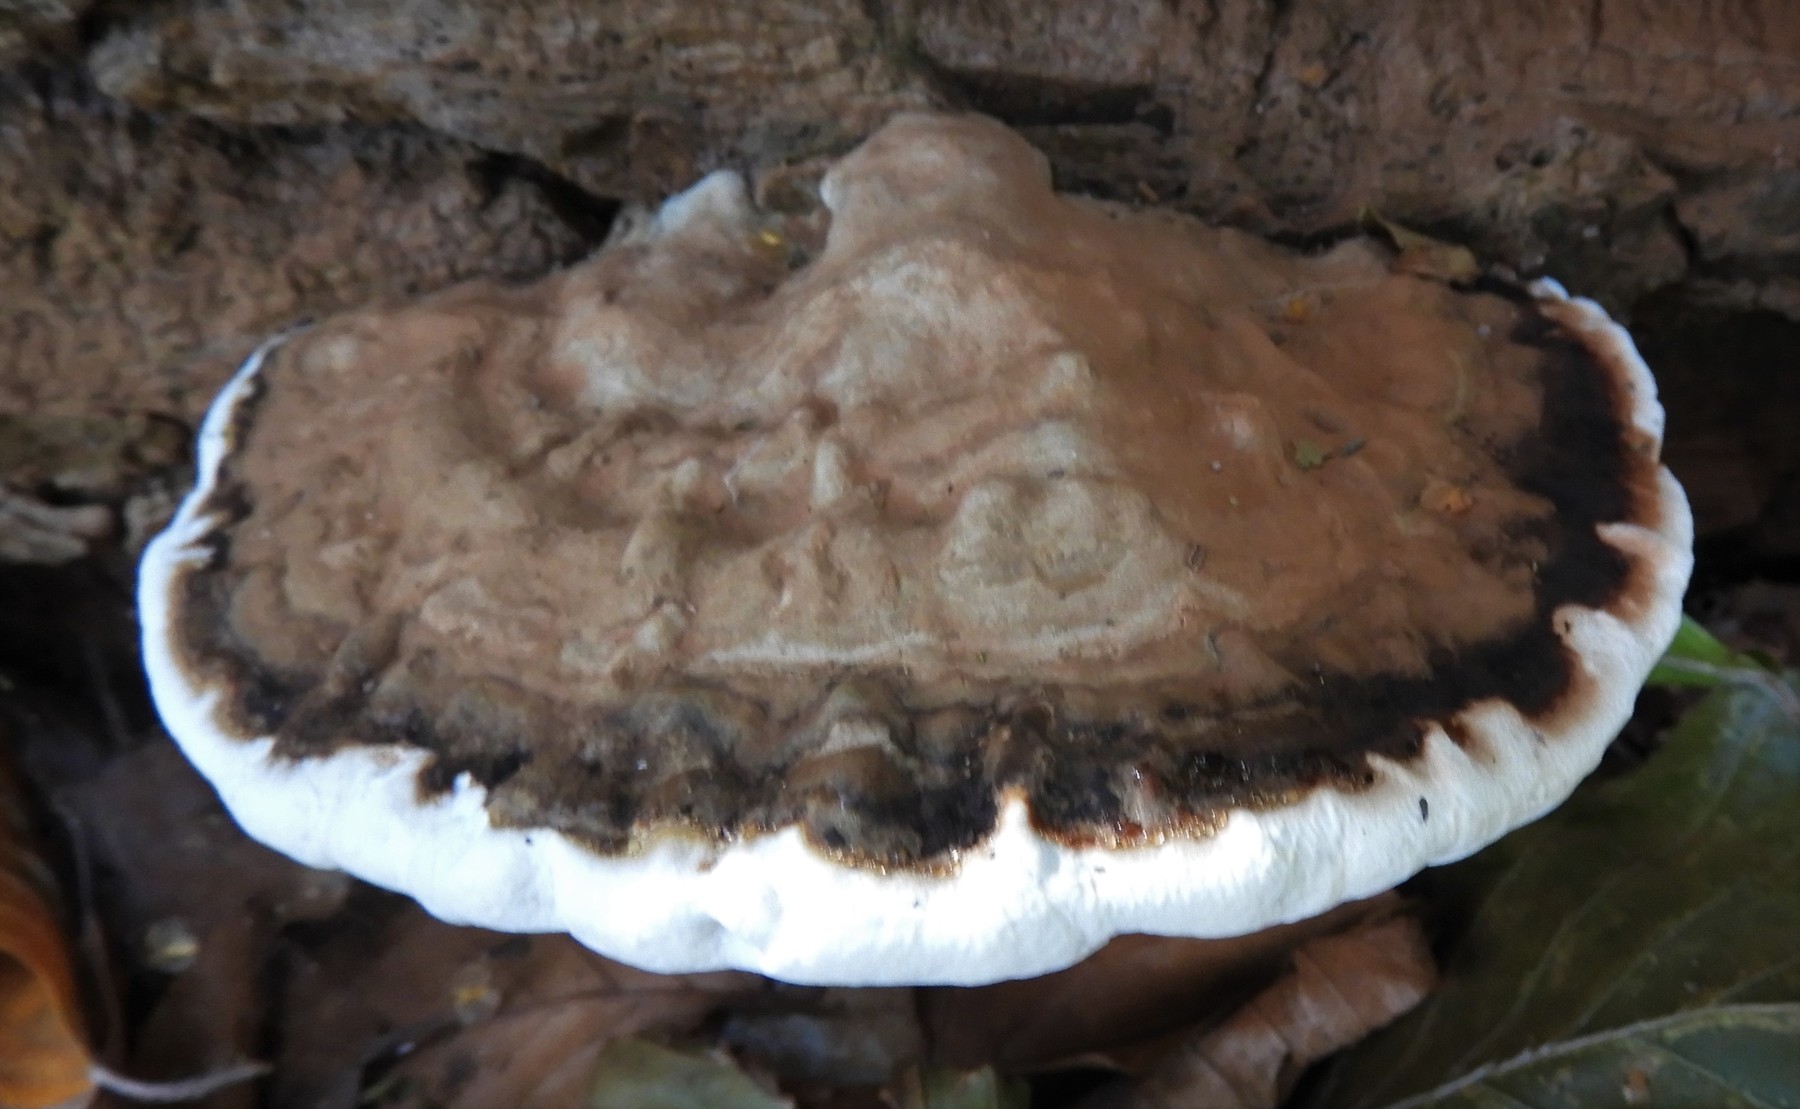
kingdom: Fungi
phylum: Basidiomycota
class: Agaricomycetes
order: Polyporales
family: Polyporaceae
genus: Ganoderma
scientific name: Ganoderma applanatum
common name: flad lakporesvamp
